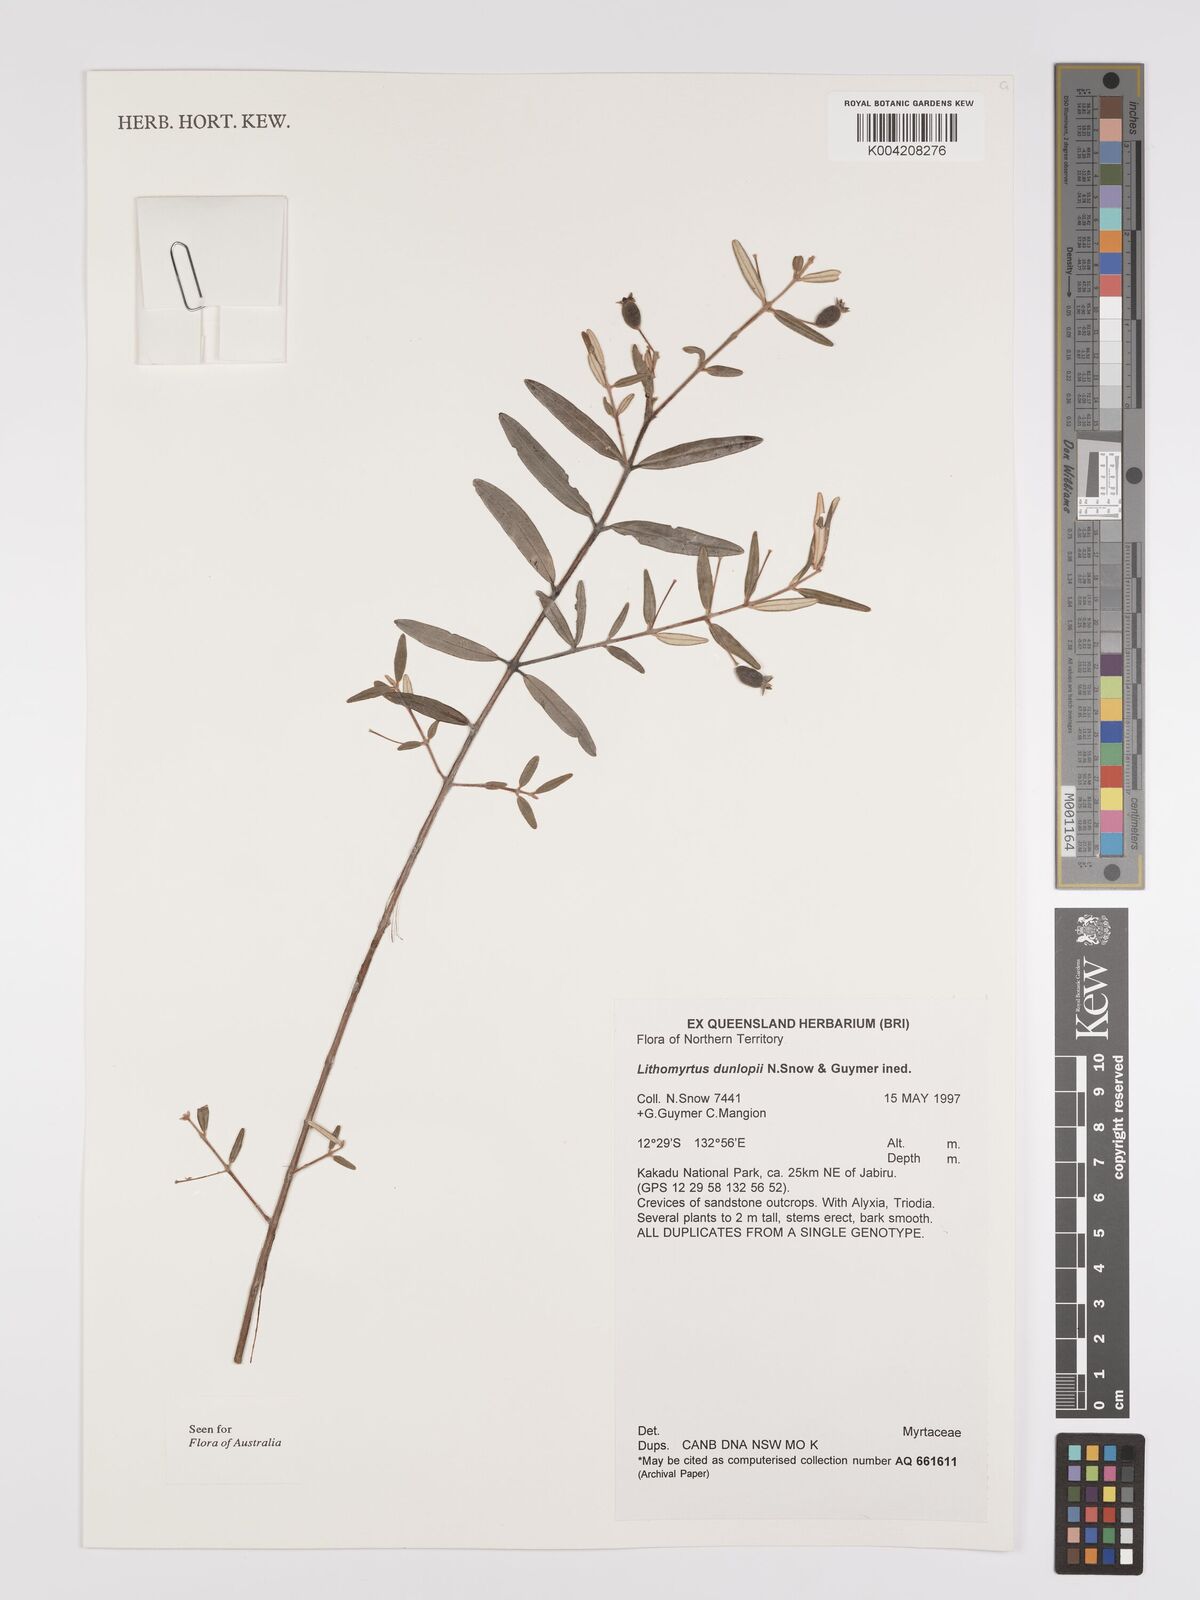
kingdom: Plantae
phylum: Tracheophyta
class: Magnoliopsida
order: Myrtales
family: Myrtaceae
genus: Lithomyrtus
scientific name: Lithomyrtus dunlopii
